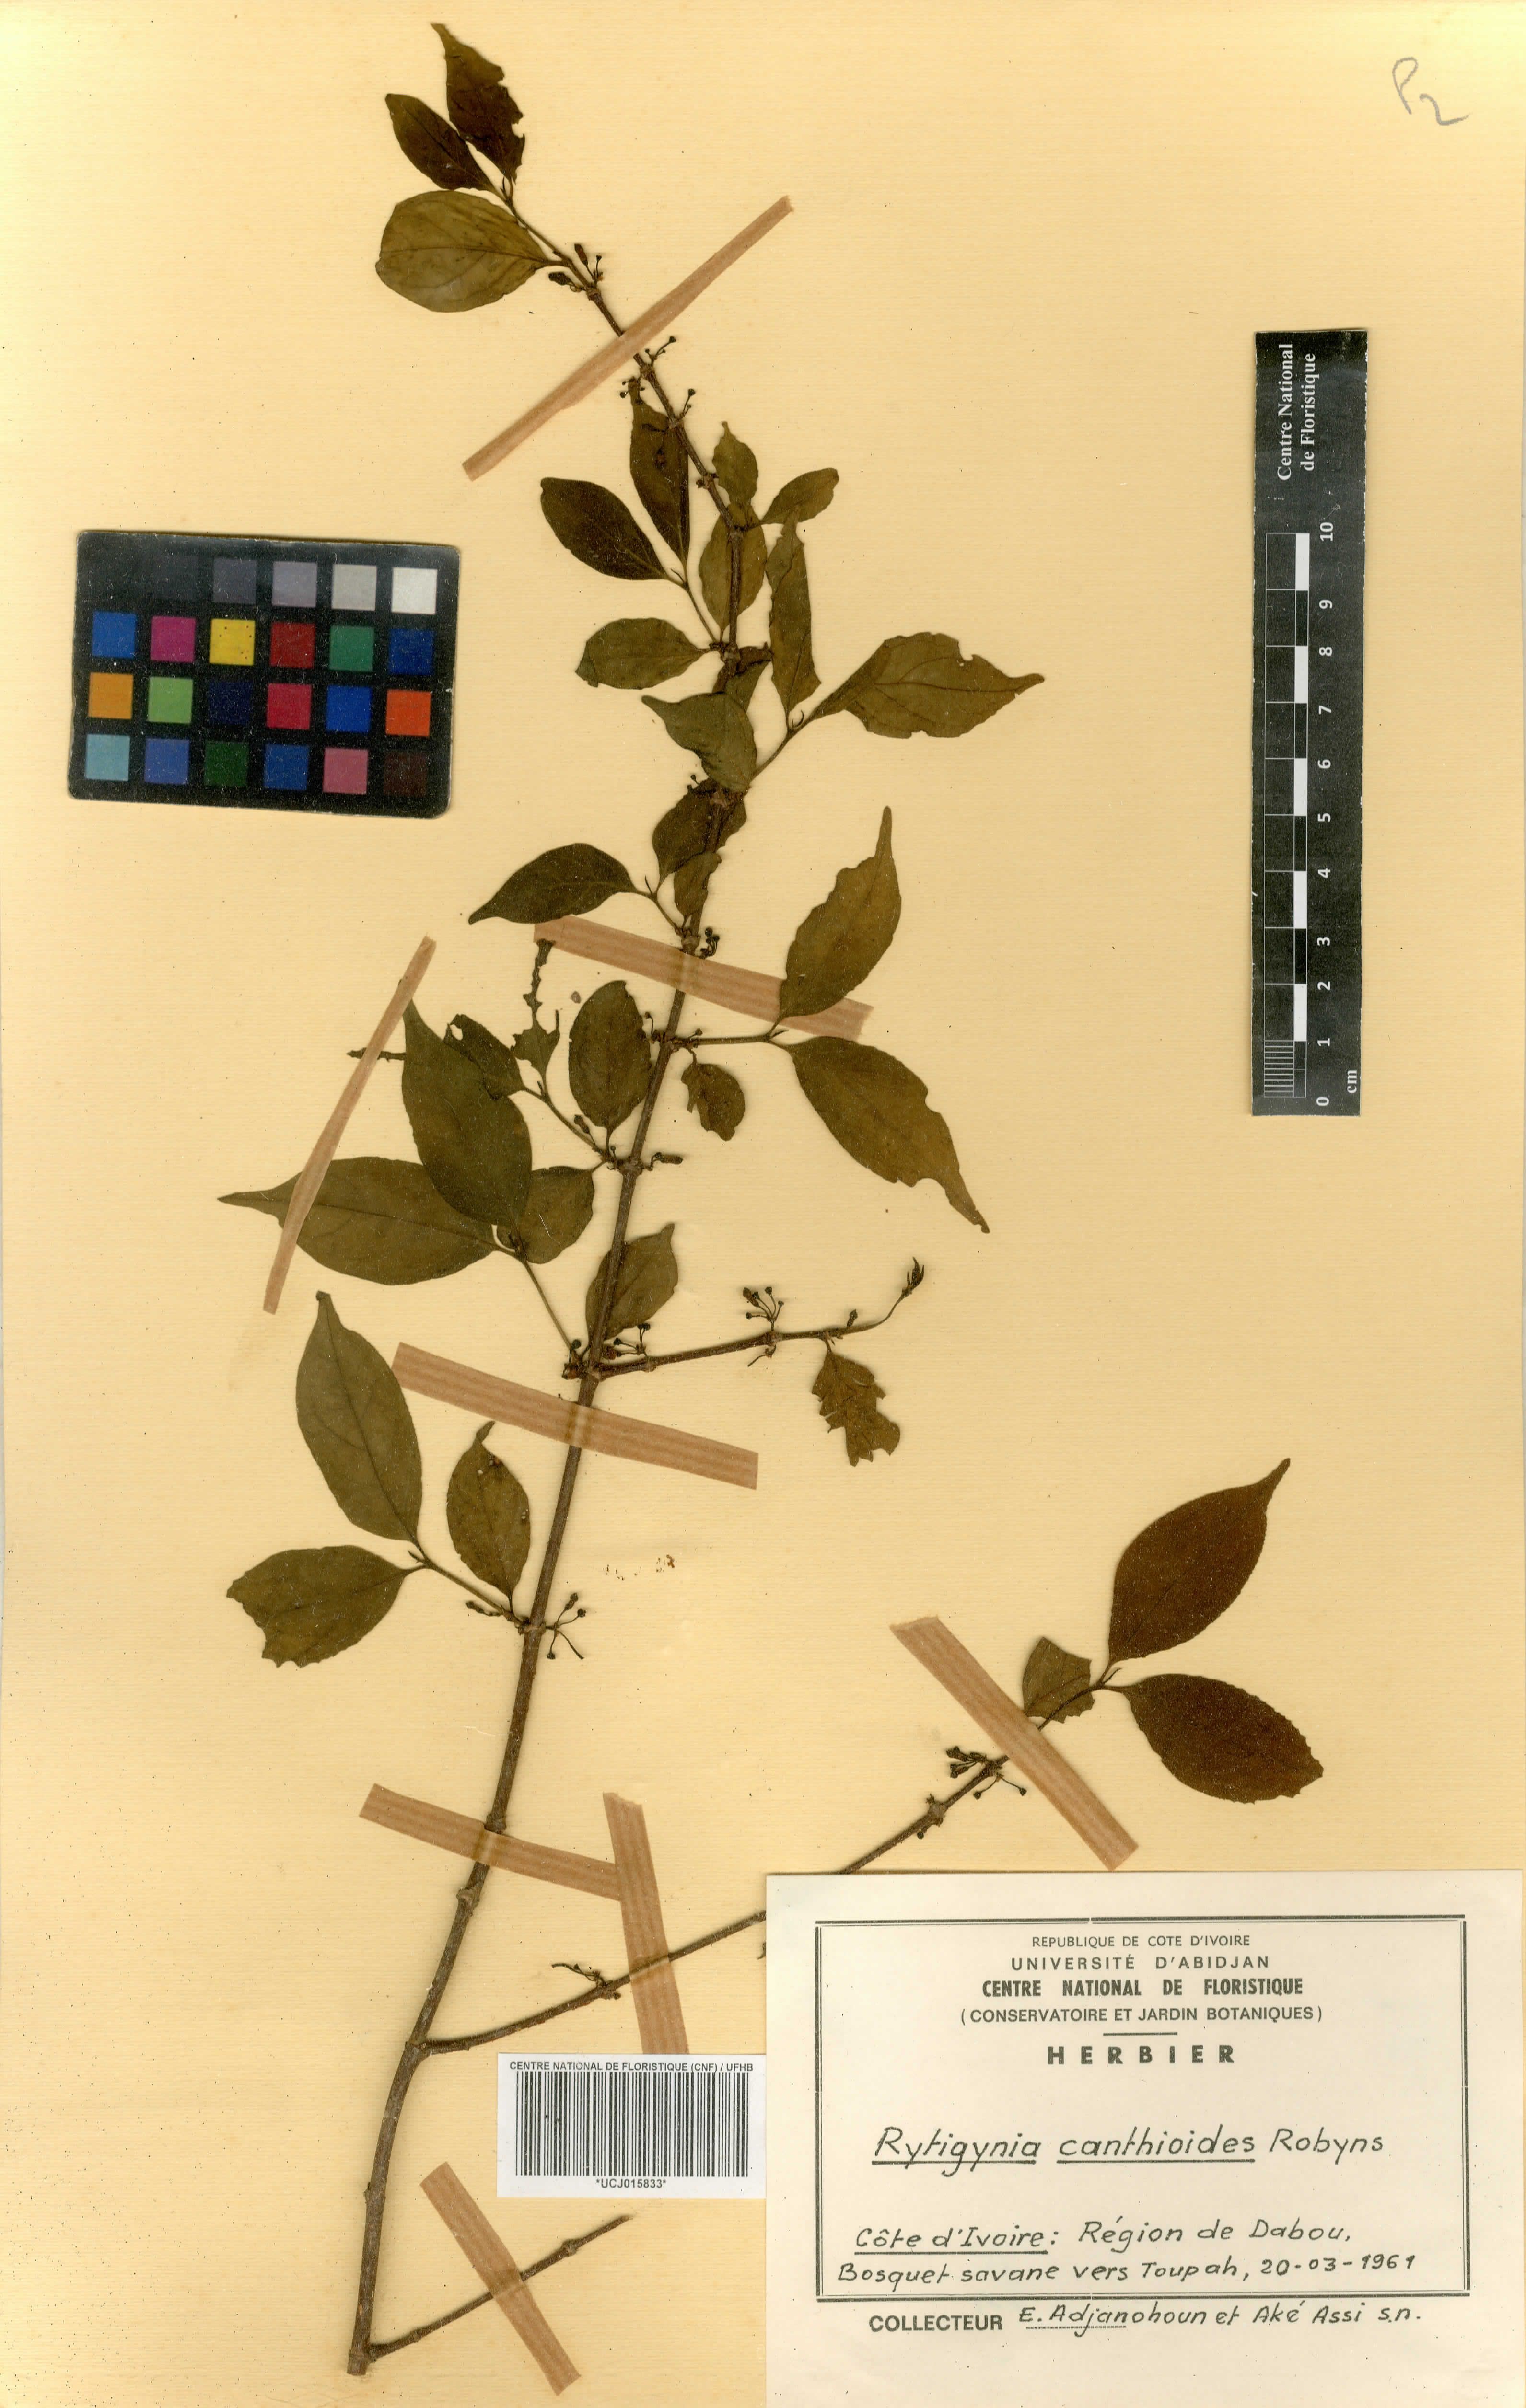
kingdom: Plantae
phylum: Tracheophyta
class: Magnoliopsida
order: Gentianales
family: Rubiaceae
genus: Rytigynia
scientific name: Rytigynia canthioides
